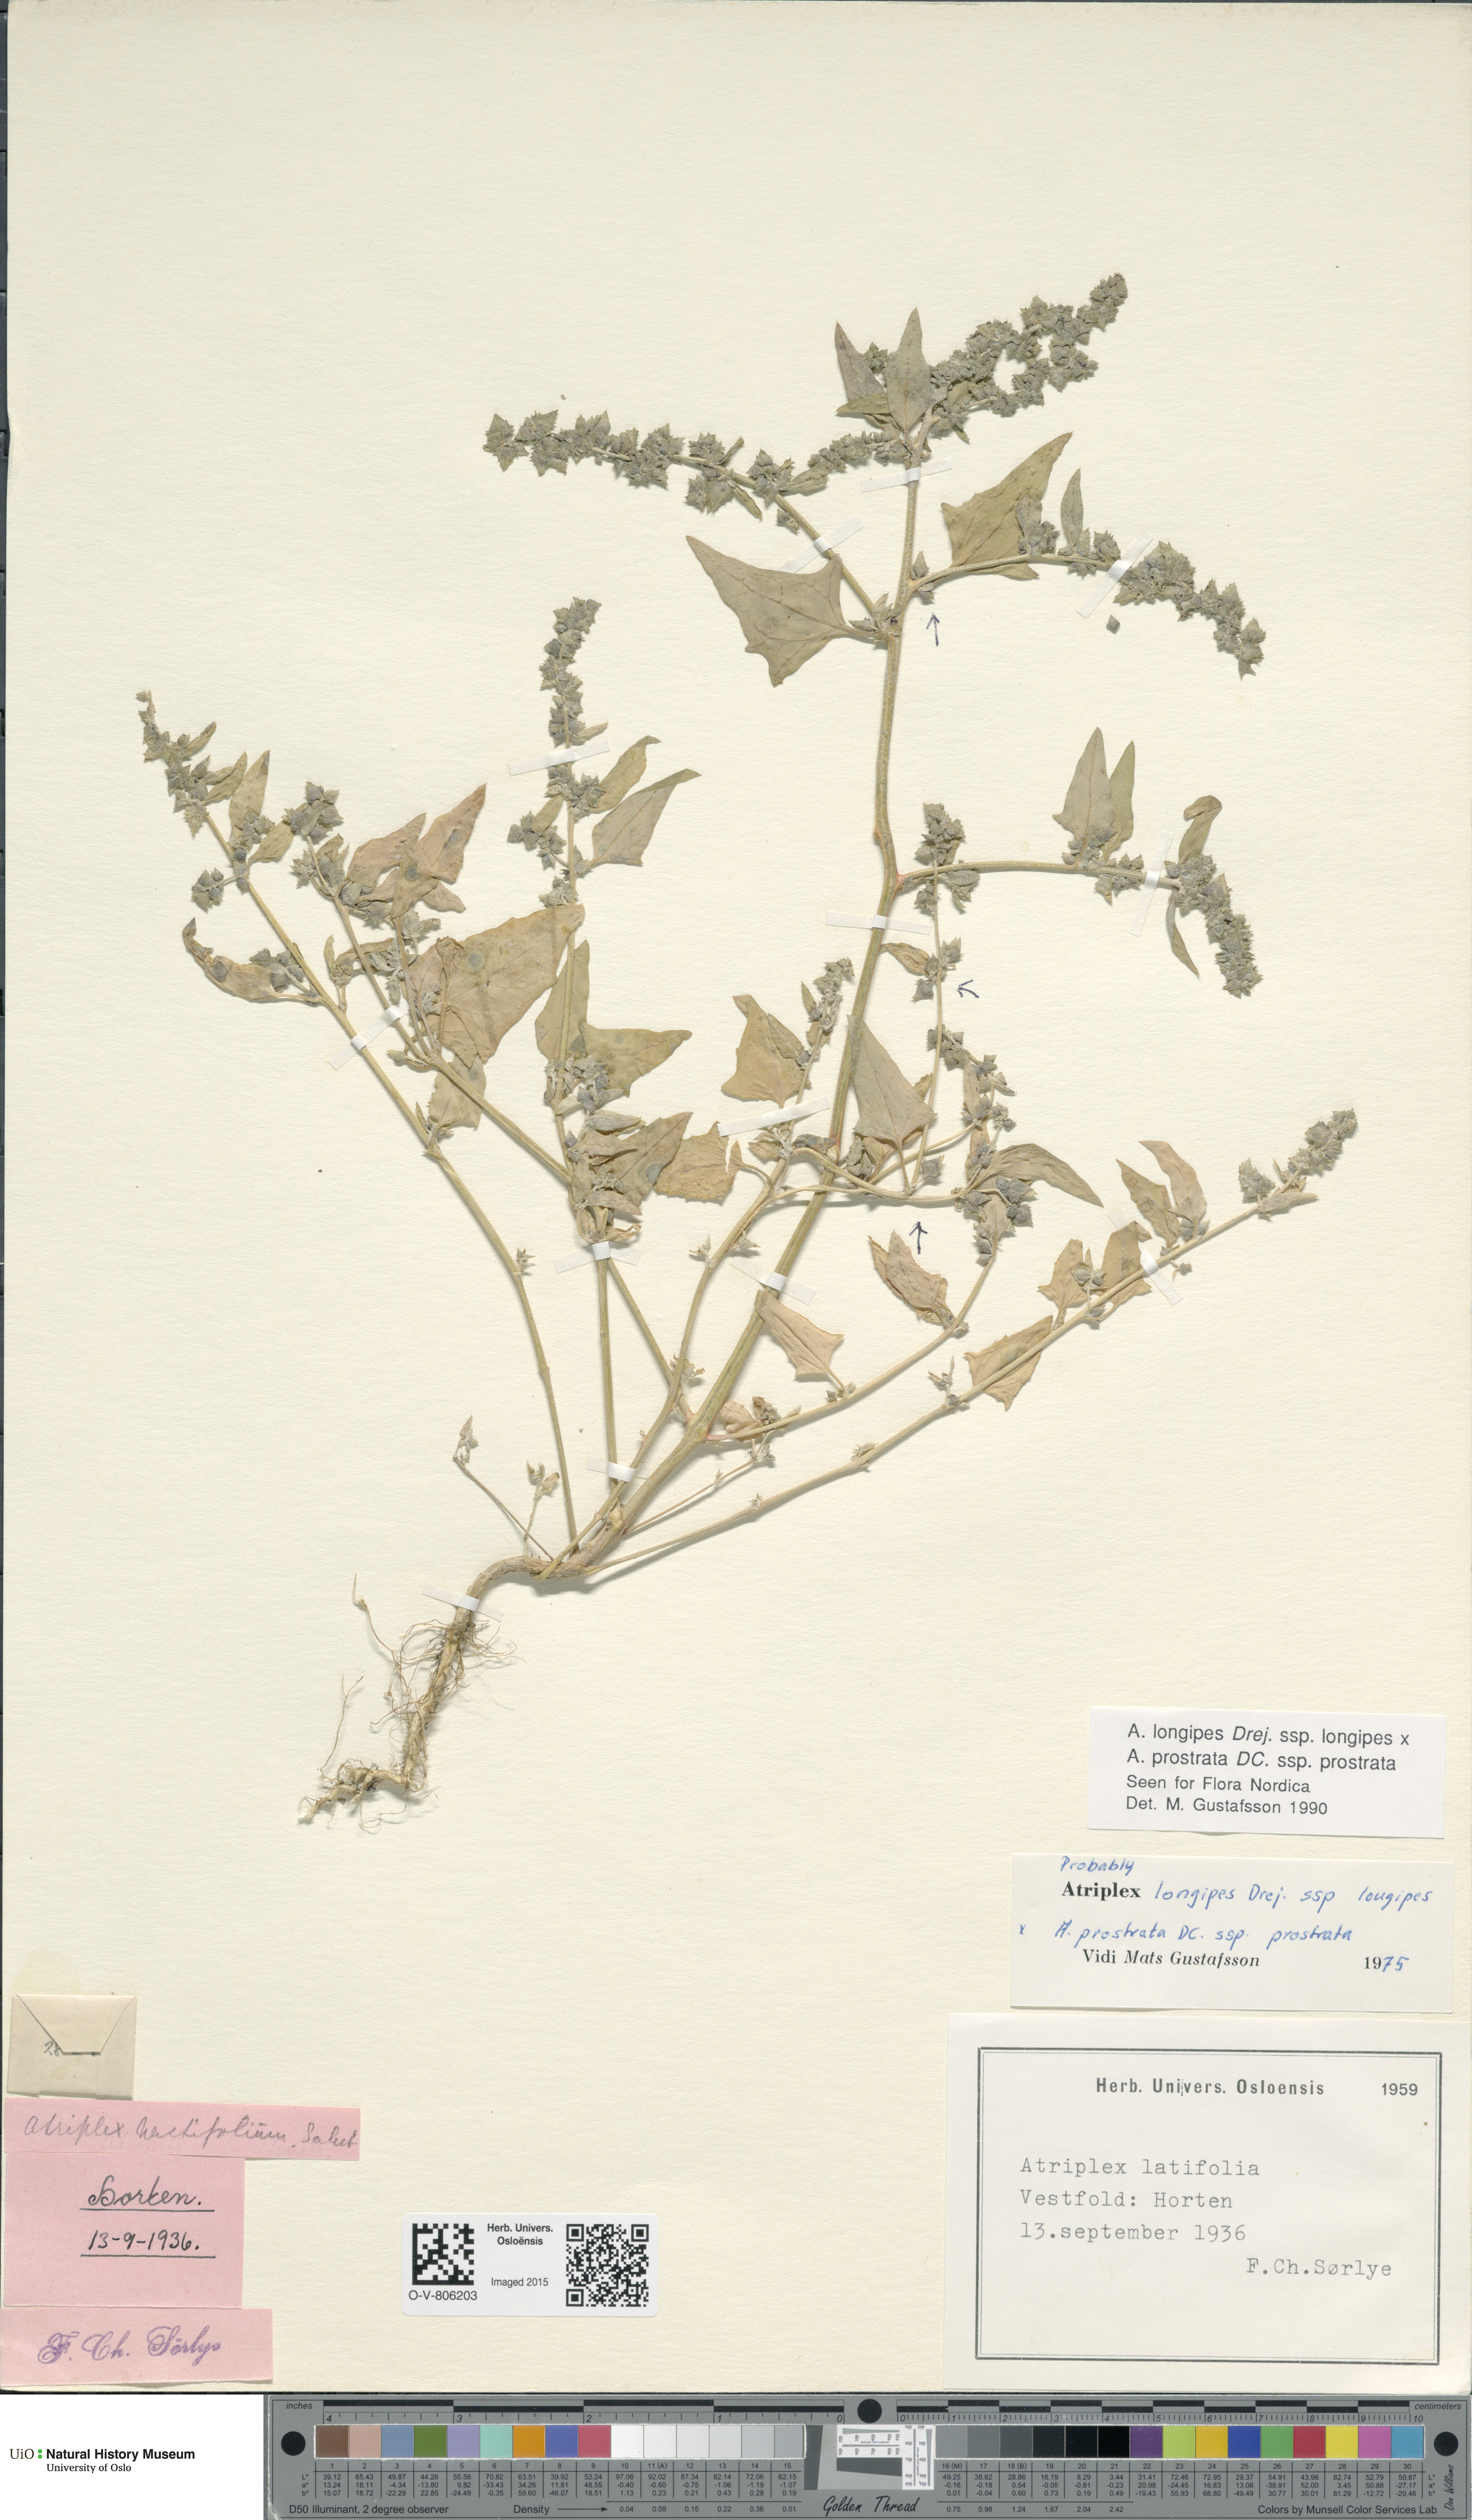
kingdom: Plantae
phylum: Tracheophyta
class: Magnoliopsida
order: Caryophyllales
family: Amaranthaceae
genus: Atriplex
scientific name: Atriplex
